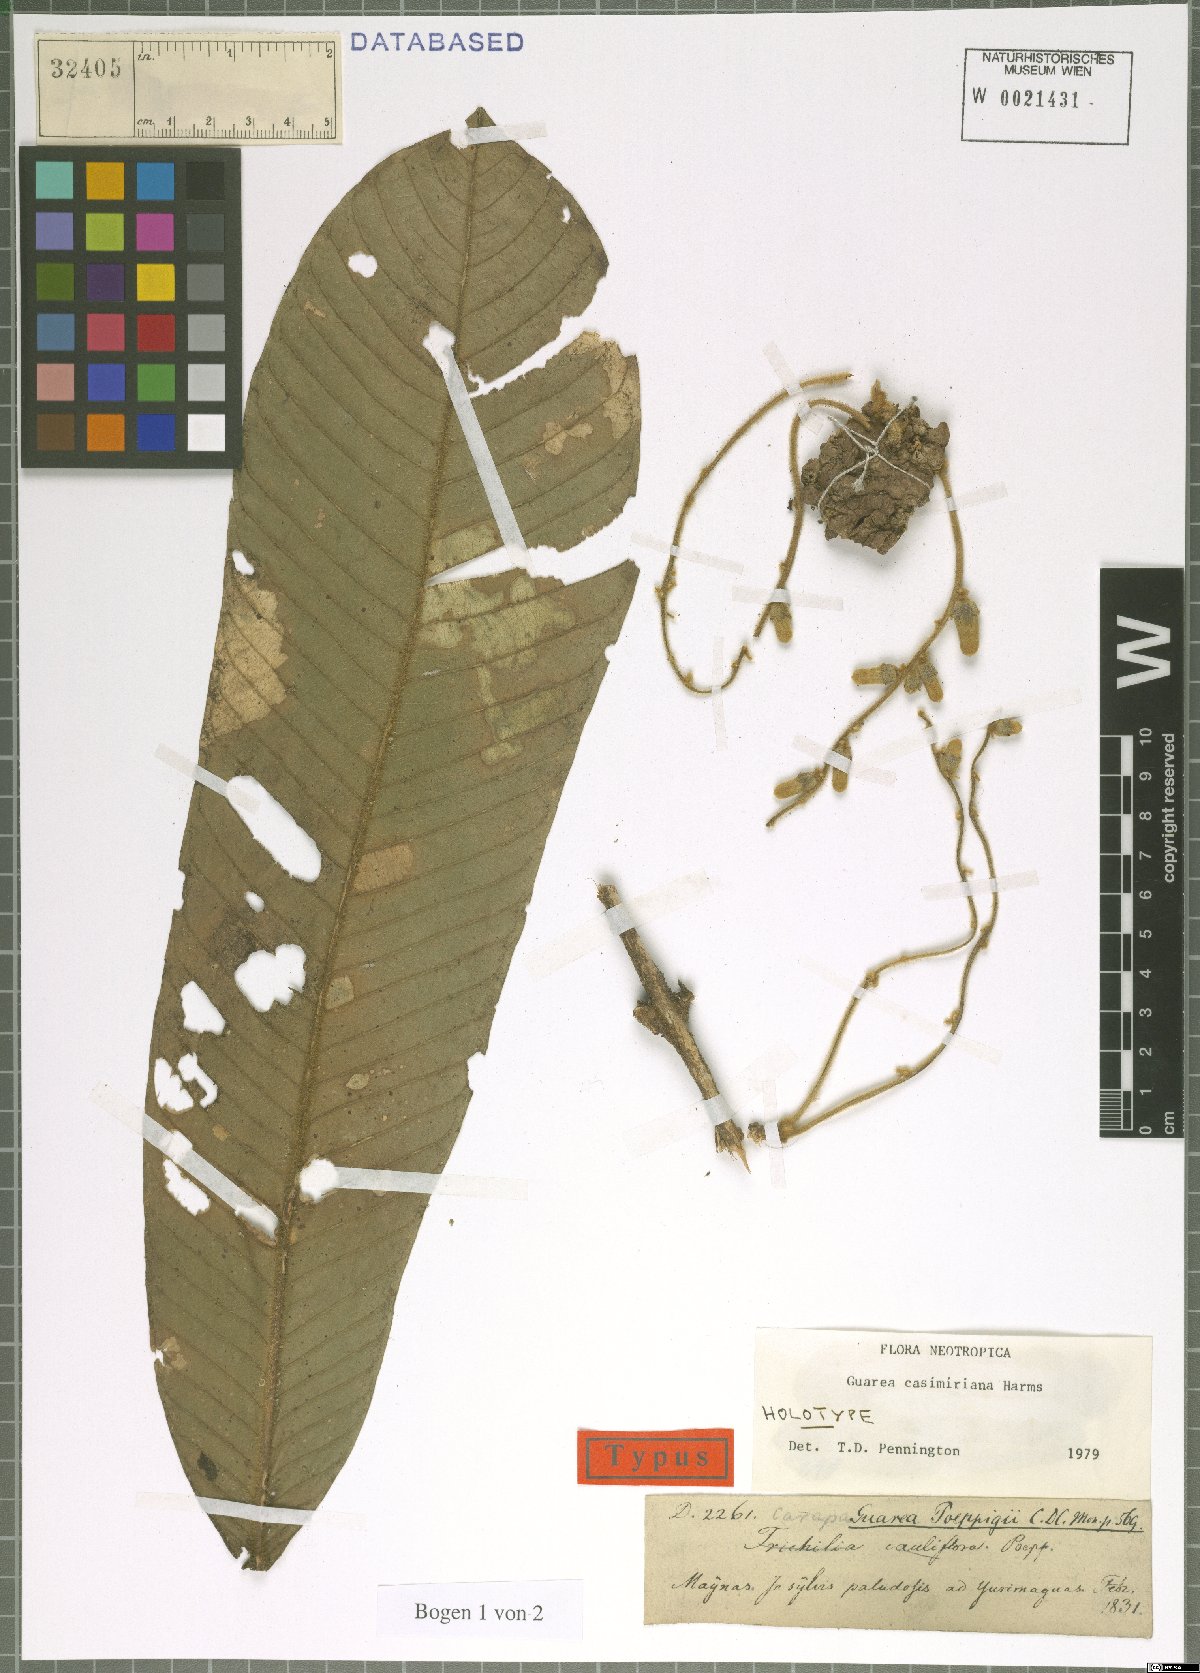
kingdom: Plantae
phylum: Tracheophyta
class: Magnoliopsida
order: Sapindales
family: Meliaceae
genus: Guarea
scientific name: Guarea casimiriana
